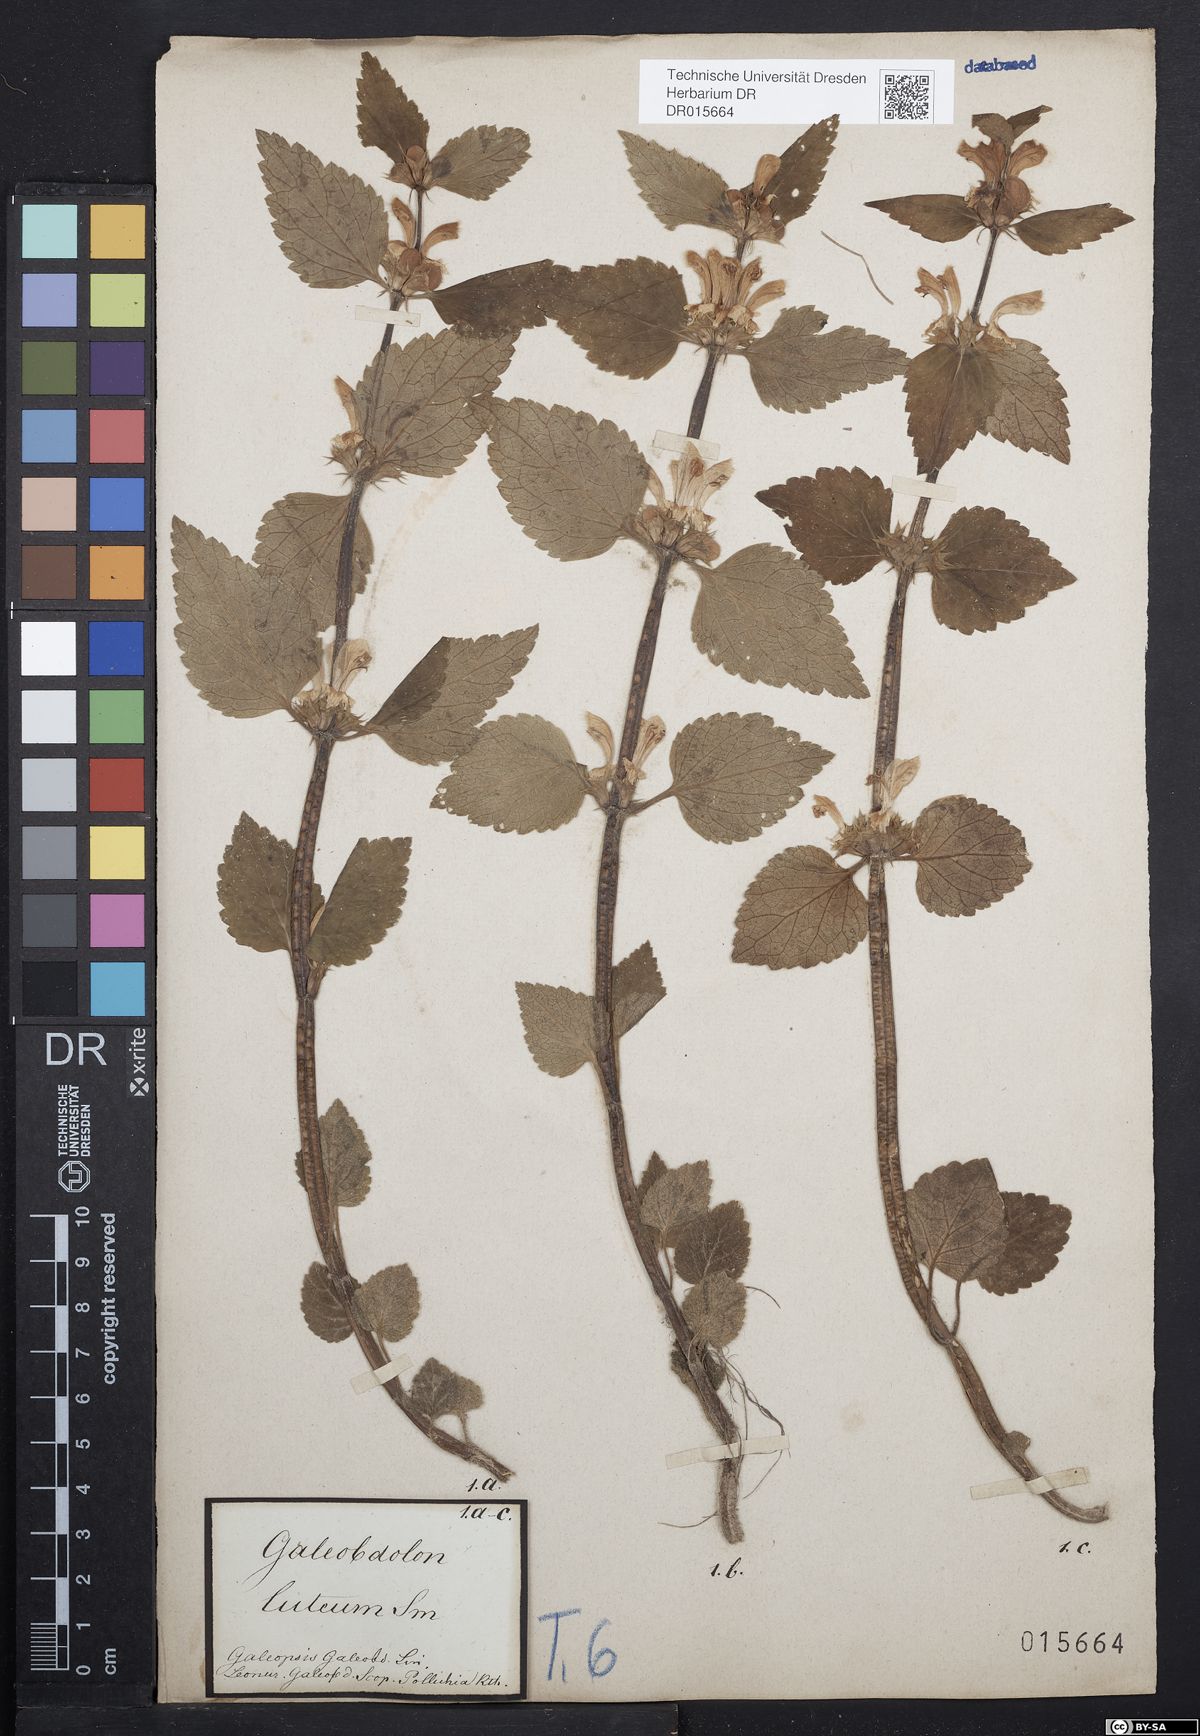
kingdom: Plantae
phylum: Tracheophyta
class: Magnoliopsida
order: Lamiales
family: Lamiaceae
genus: Lamium
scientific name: Lamium galeobdolon
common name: Yellow archangel
